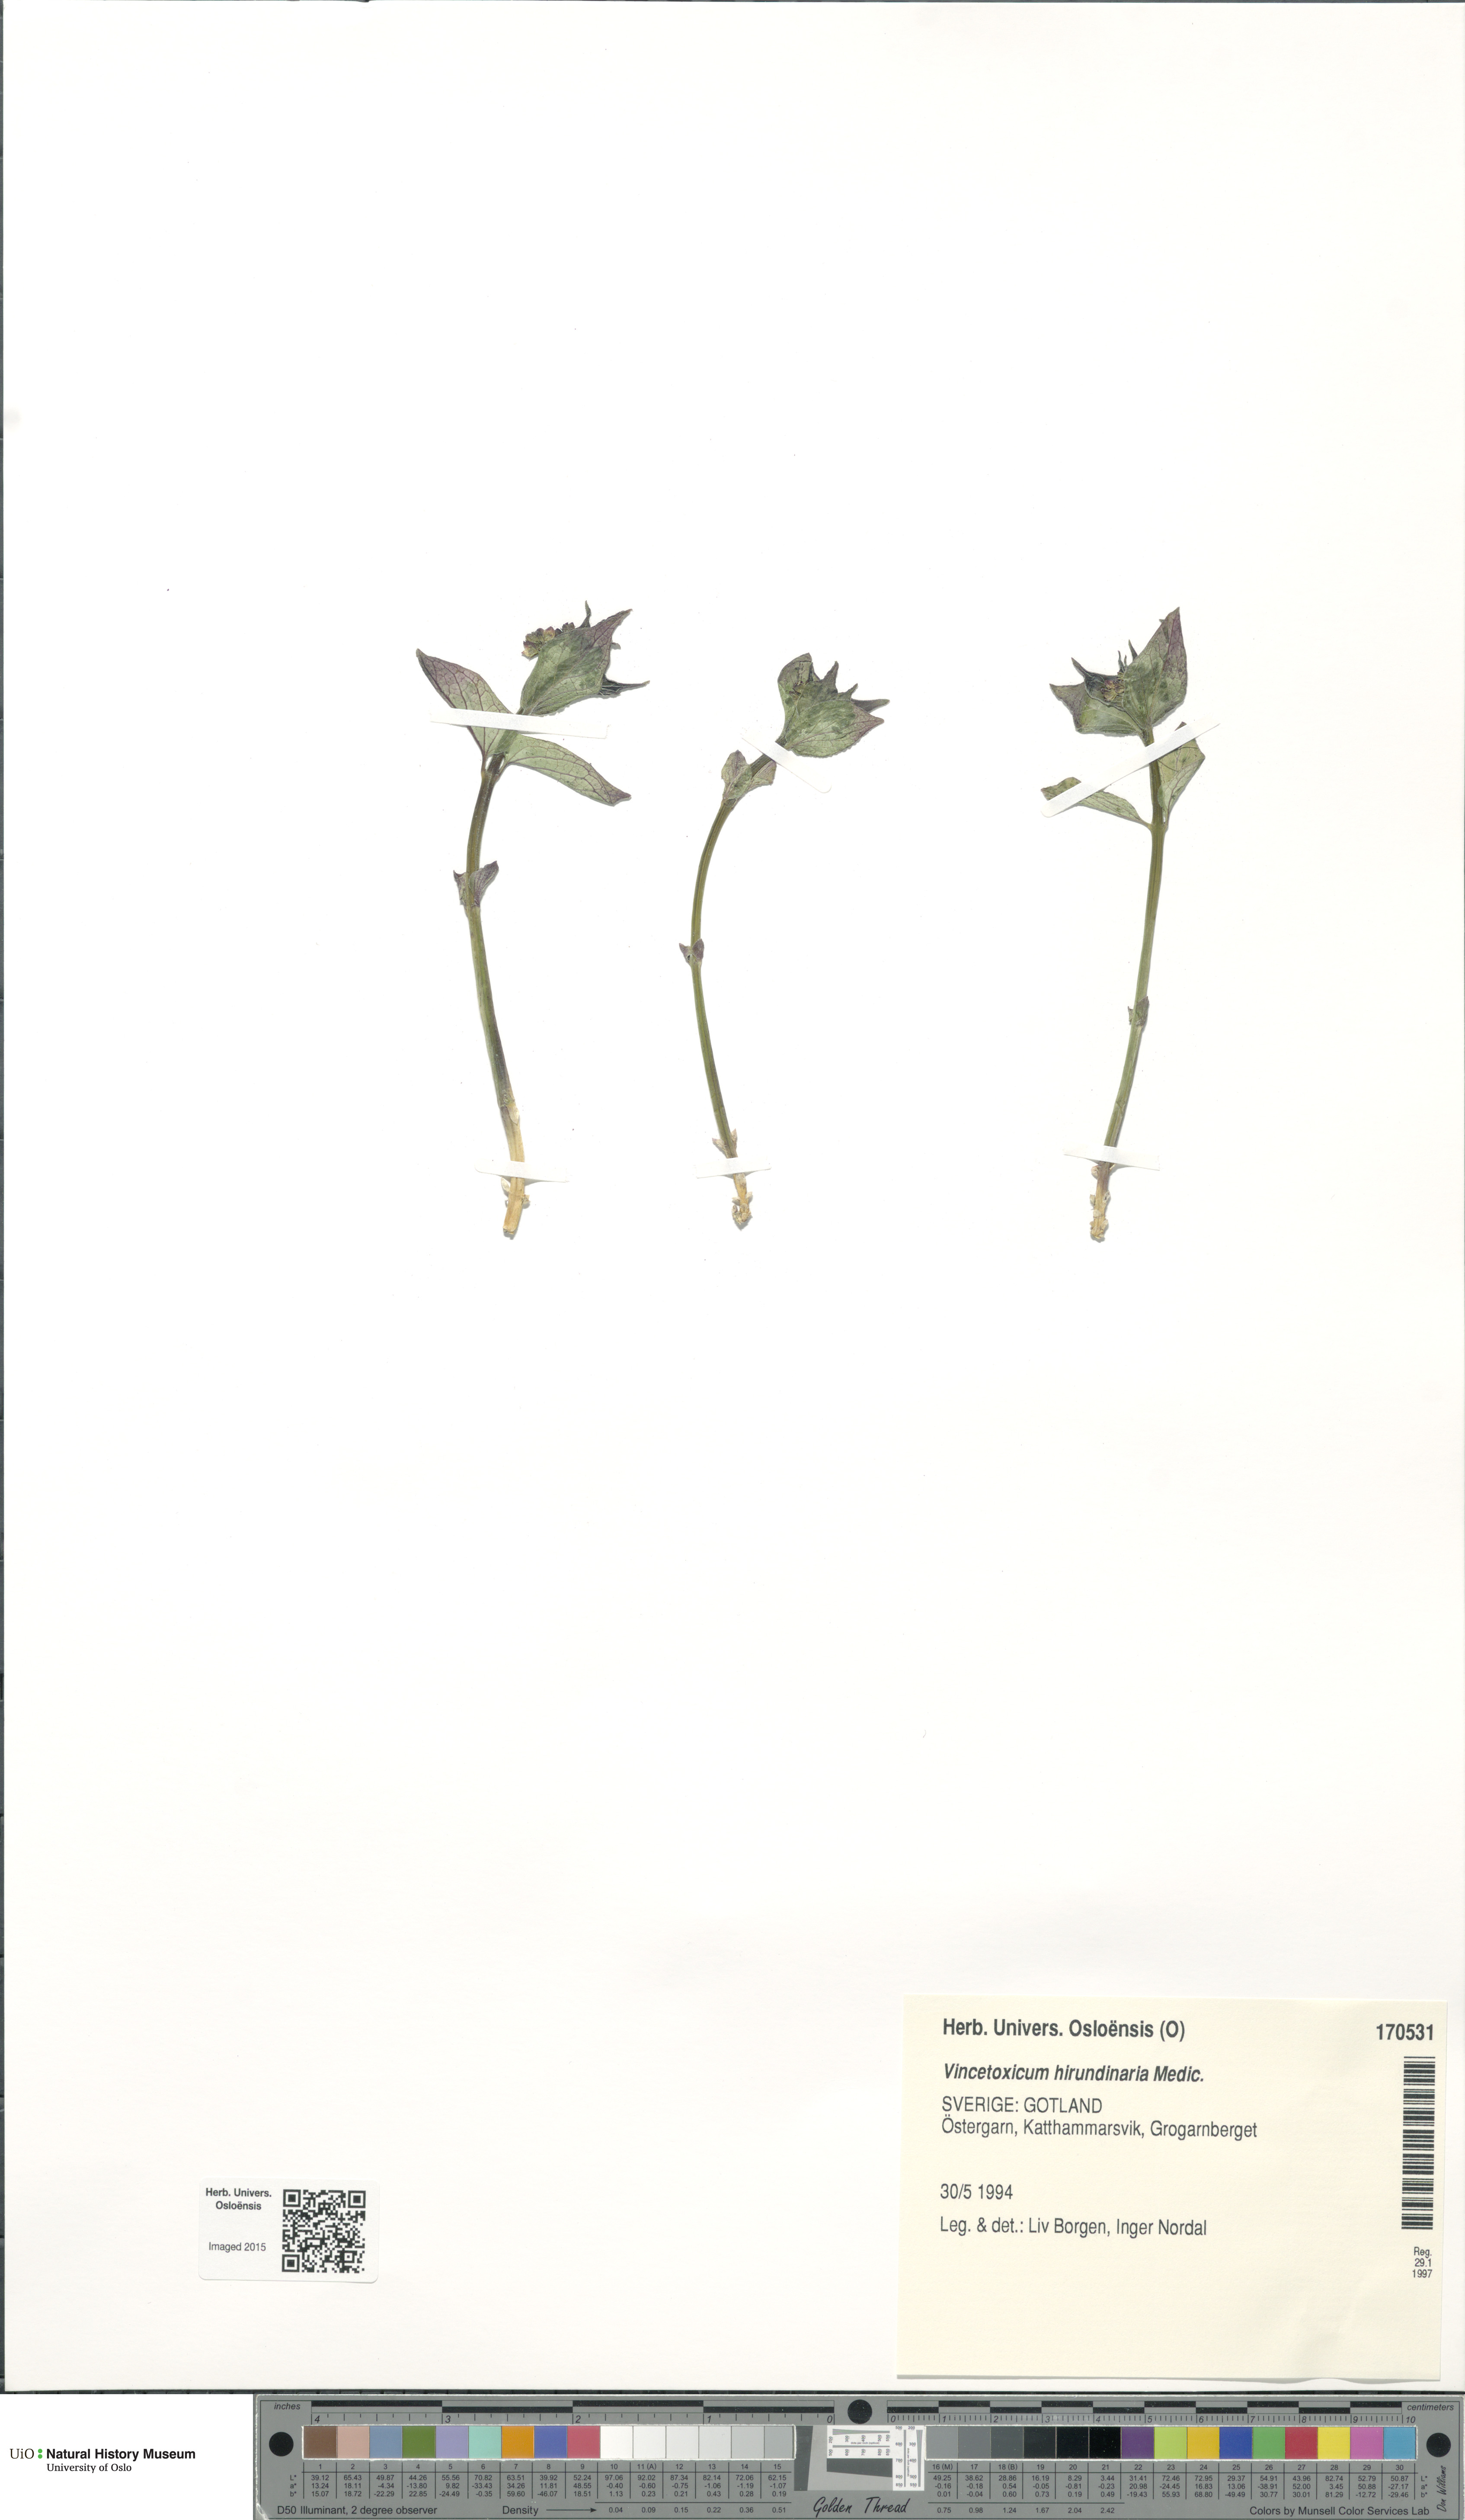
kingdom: Plantae
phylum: Tracheophyta
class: Magnoliopsida
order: Gentianales
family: Apocynaceae
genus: Vincetoxicum
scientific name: Vincetoxicum hirundinaria
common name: White swallowwort
